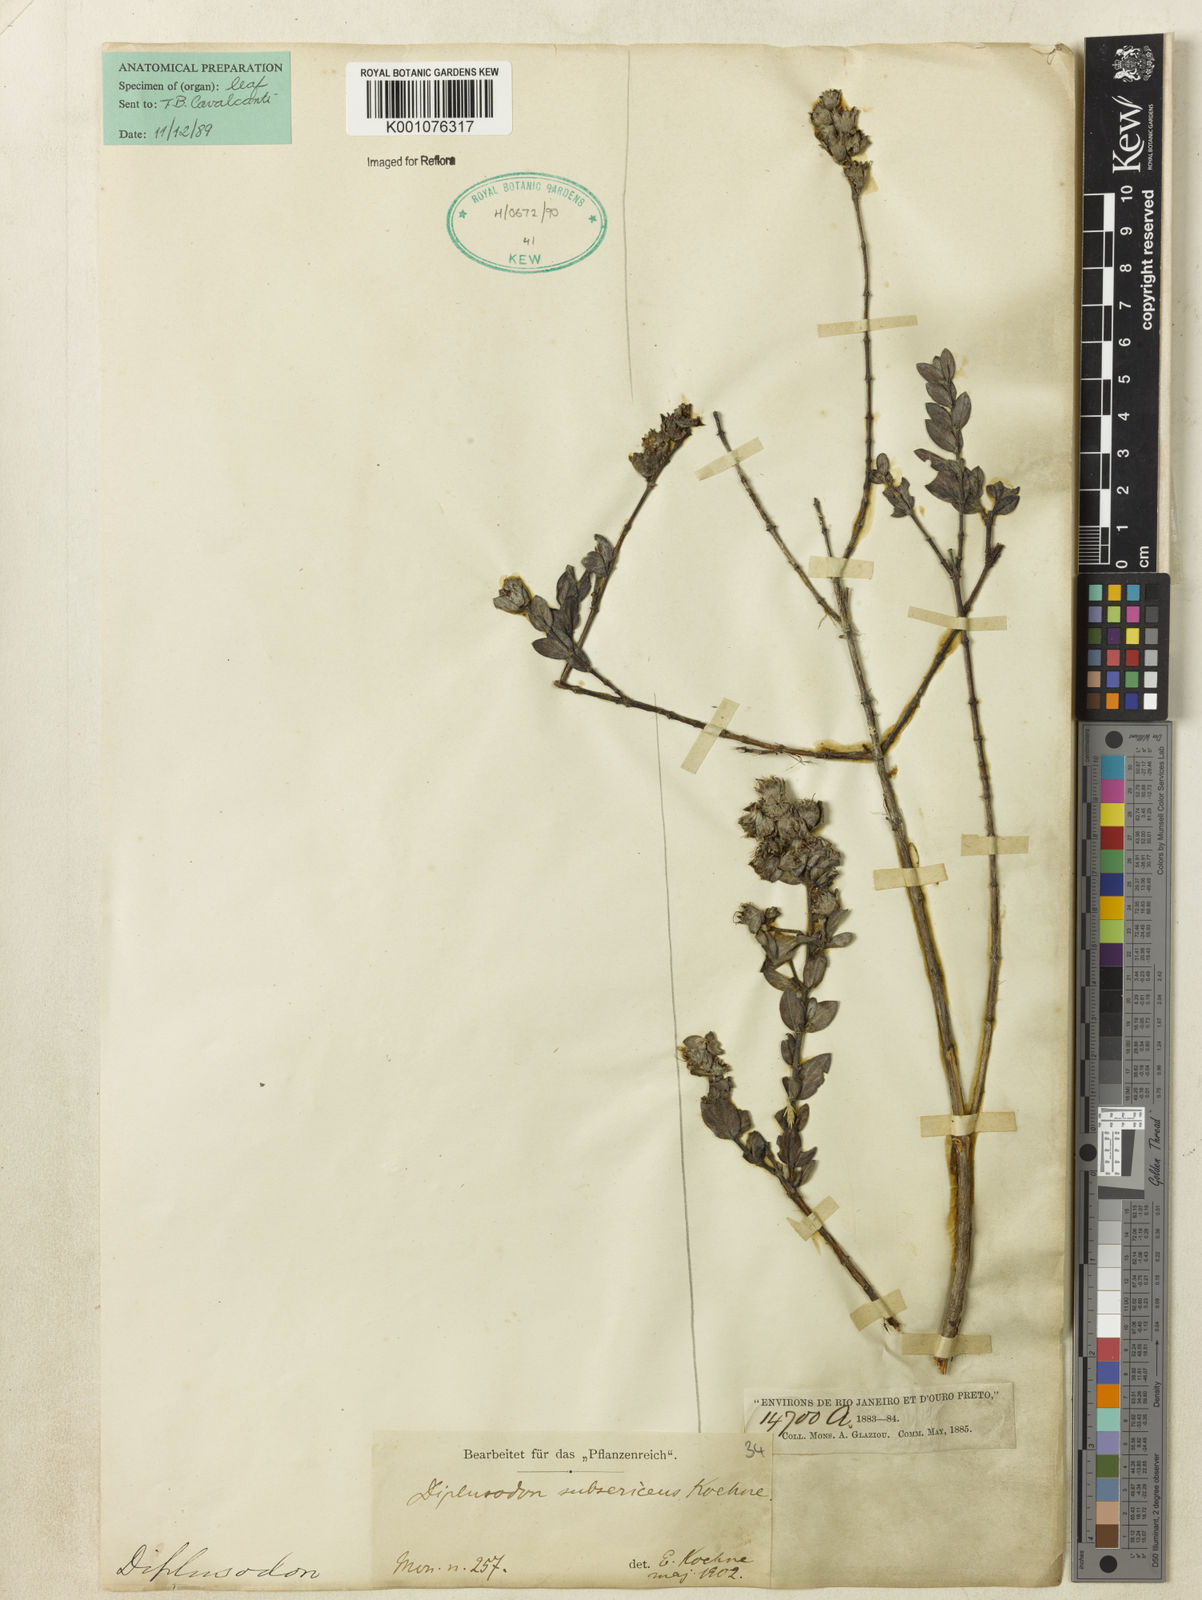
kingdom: Plantae
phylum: Tracheophyta
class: Magnoliopsida
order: Myrtales
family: Lythraceae
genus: Diplusodon
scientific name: Diplusodon subsericeus
